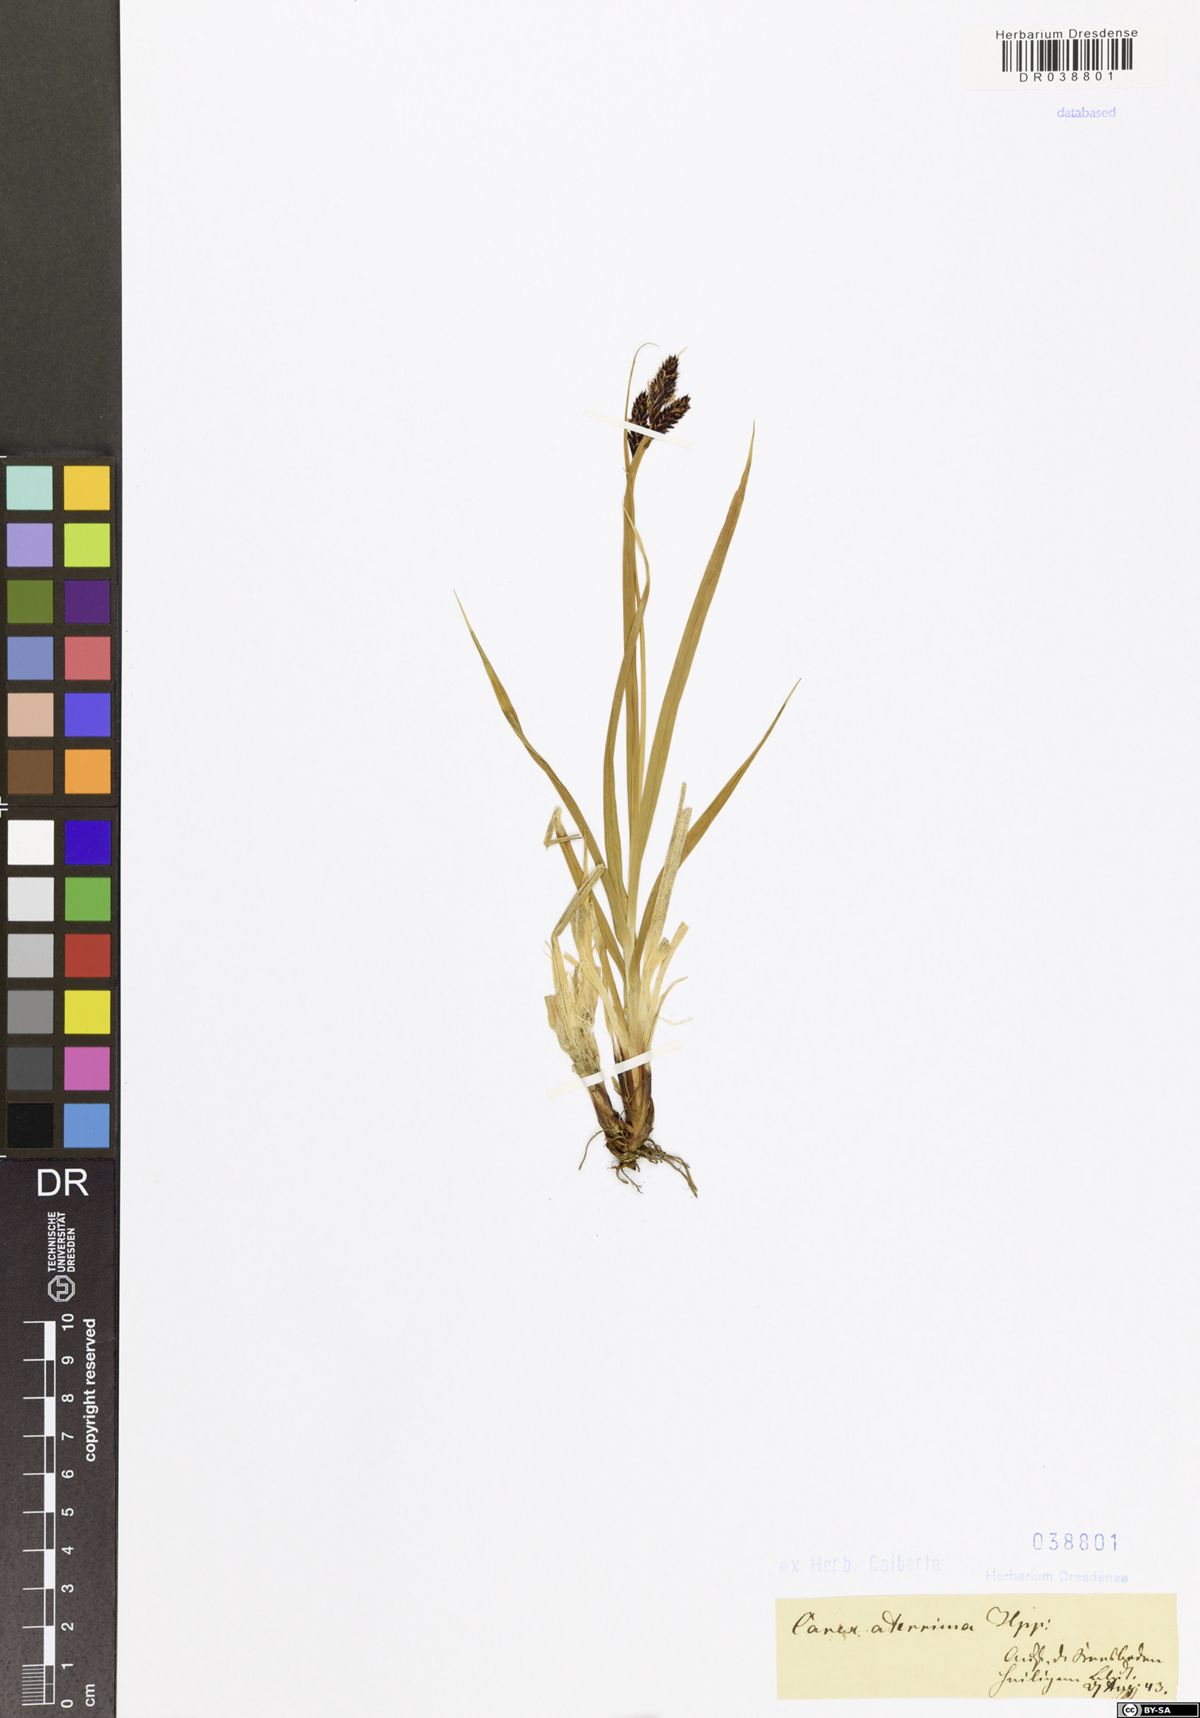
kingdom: Plantae
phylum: Tracheophyta
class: Liliopsida
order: Poales
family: Cyperaceae
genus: Carex
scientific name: Carex aterrima
